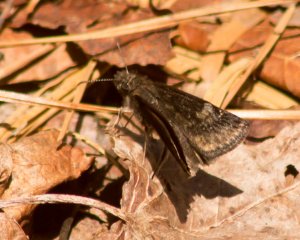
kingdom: Animalia
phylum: Arthropoda
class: Insecta
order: Lepidoptera
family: Hesperiidae
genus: Gesta
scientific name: Gesta
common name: Wild Indigo Duskywing
